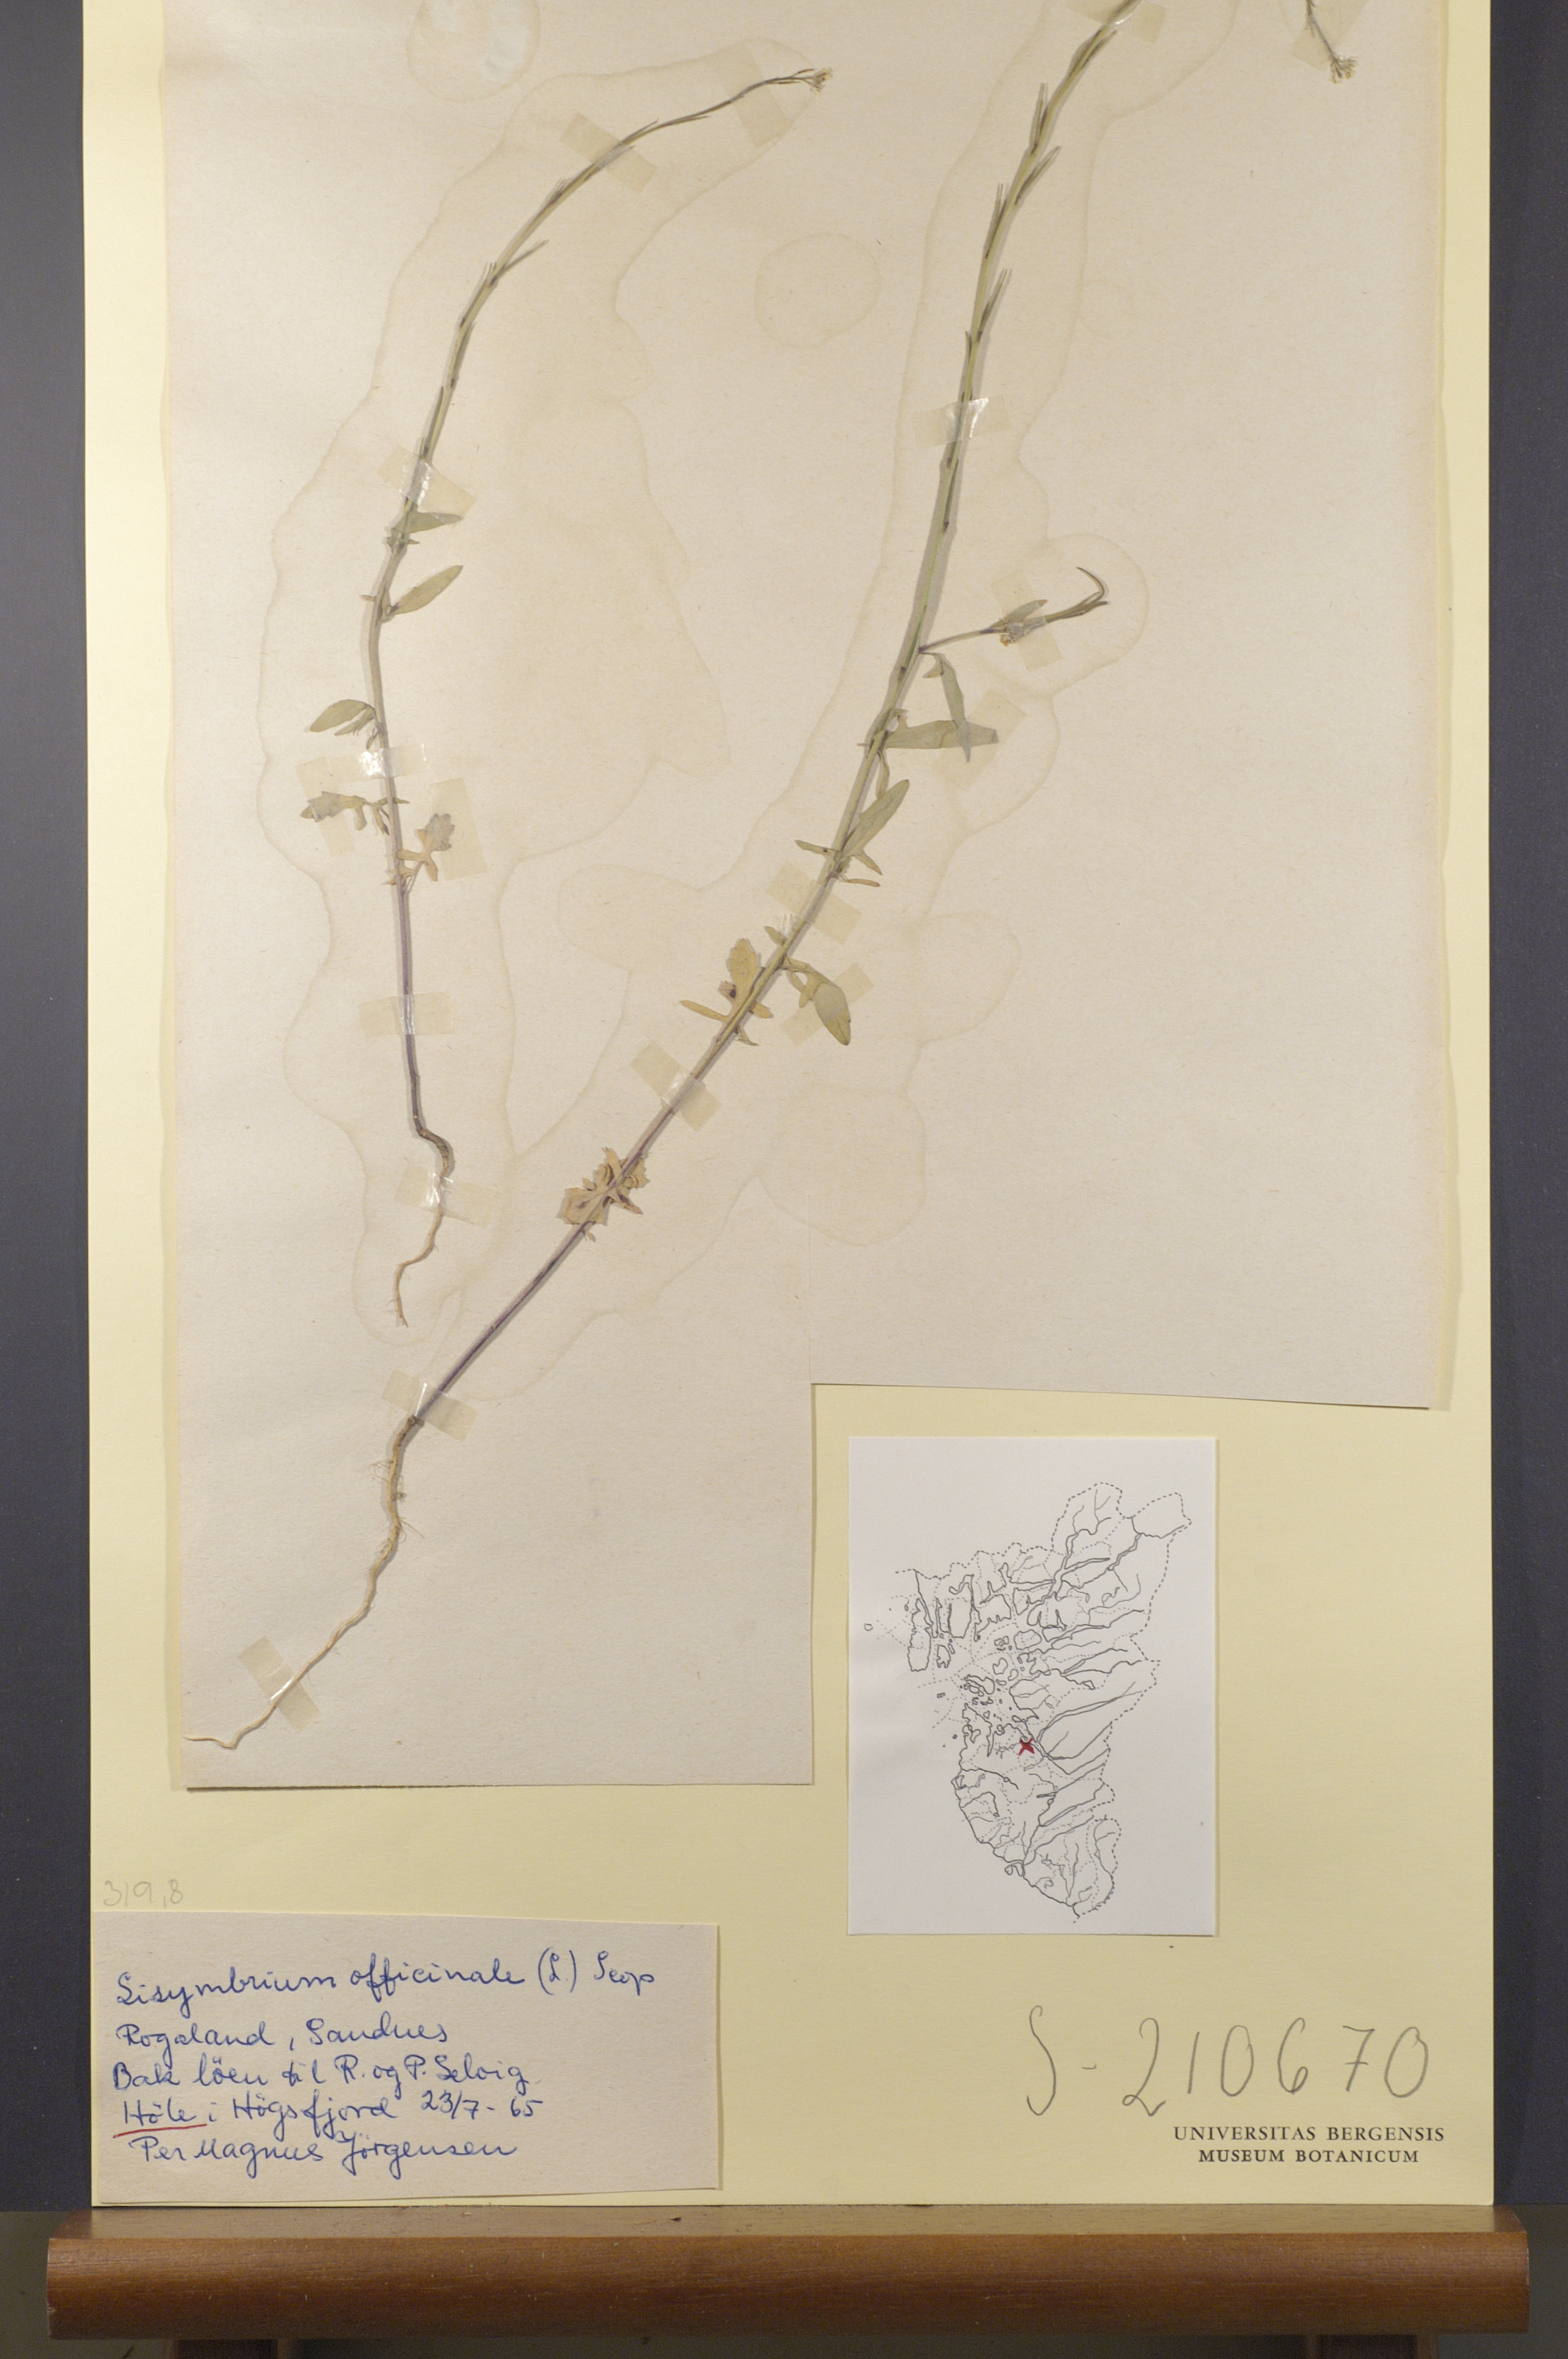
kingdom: Plantae
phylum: Tracheophyta
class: Magnoliopsida
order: Brassicales
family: Brassicaceae
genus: Sisymbrium
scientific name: Sisymbrium officinale
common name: Hedge mustard
